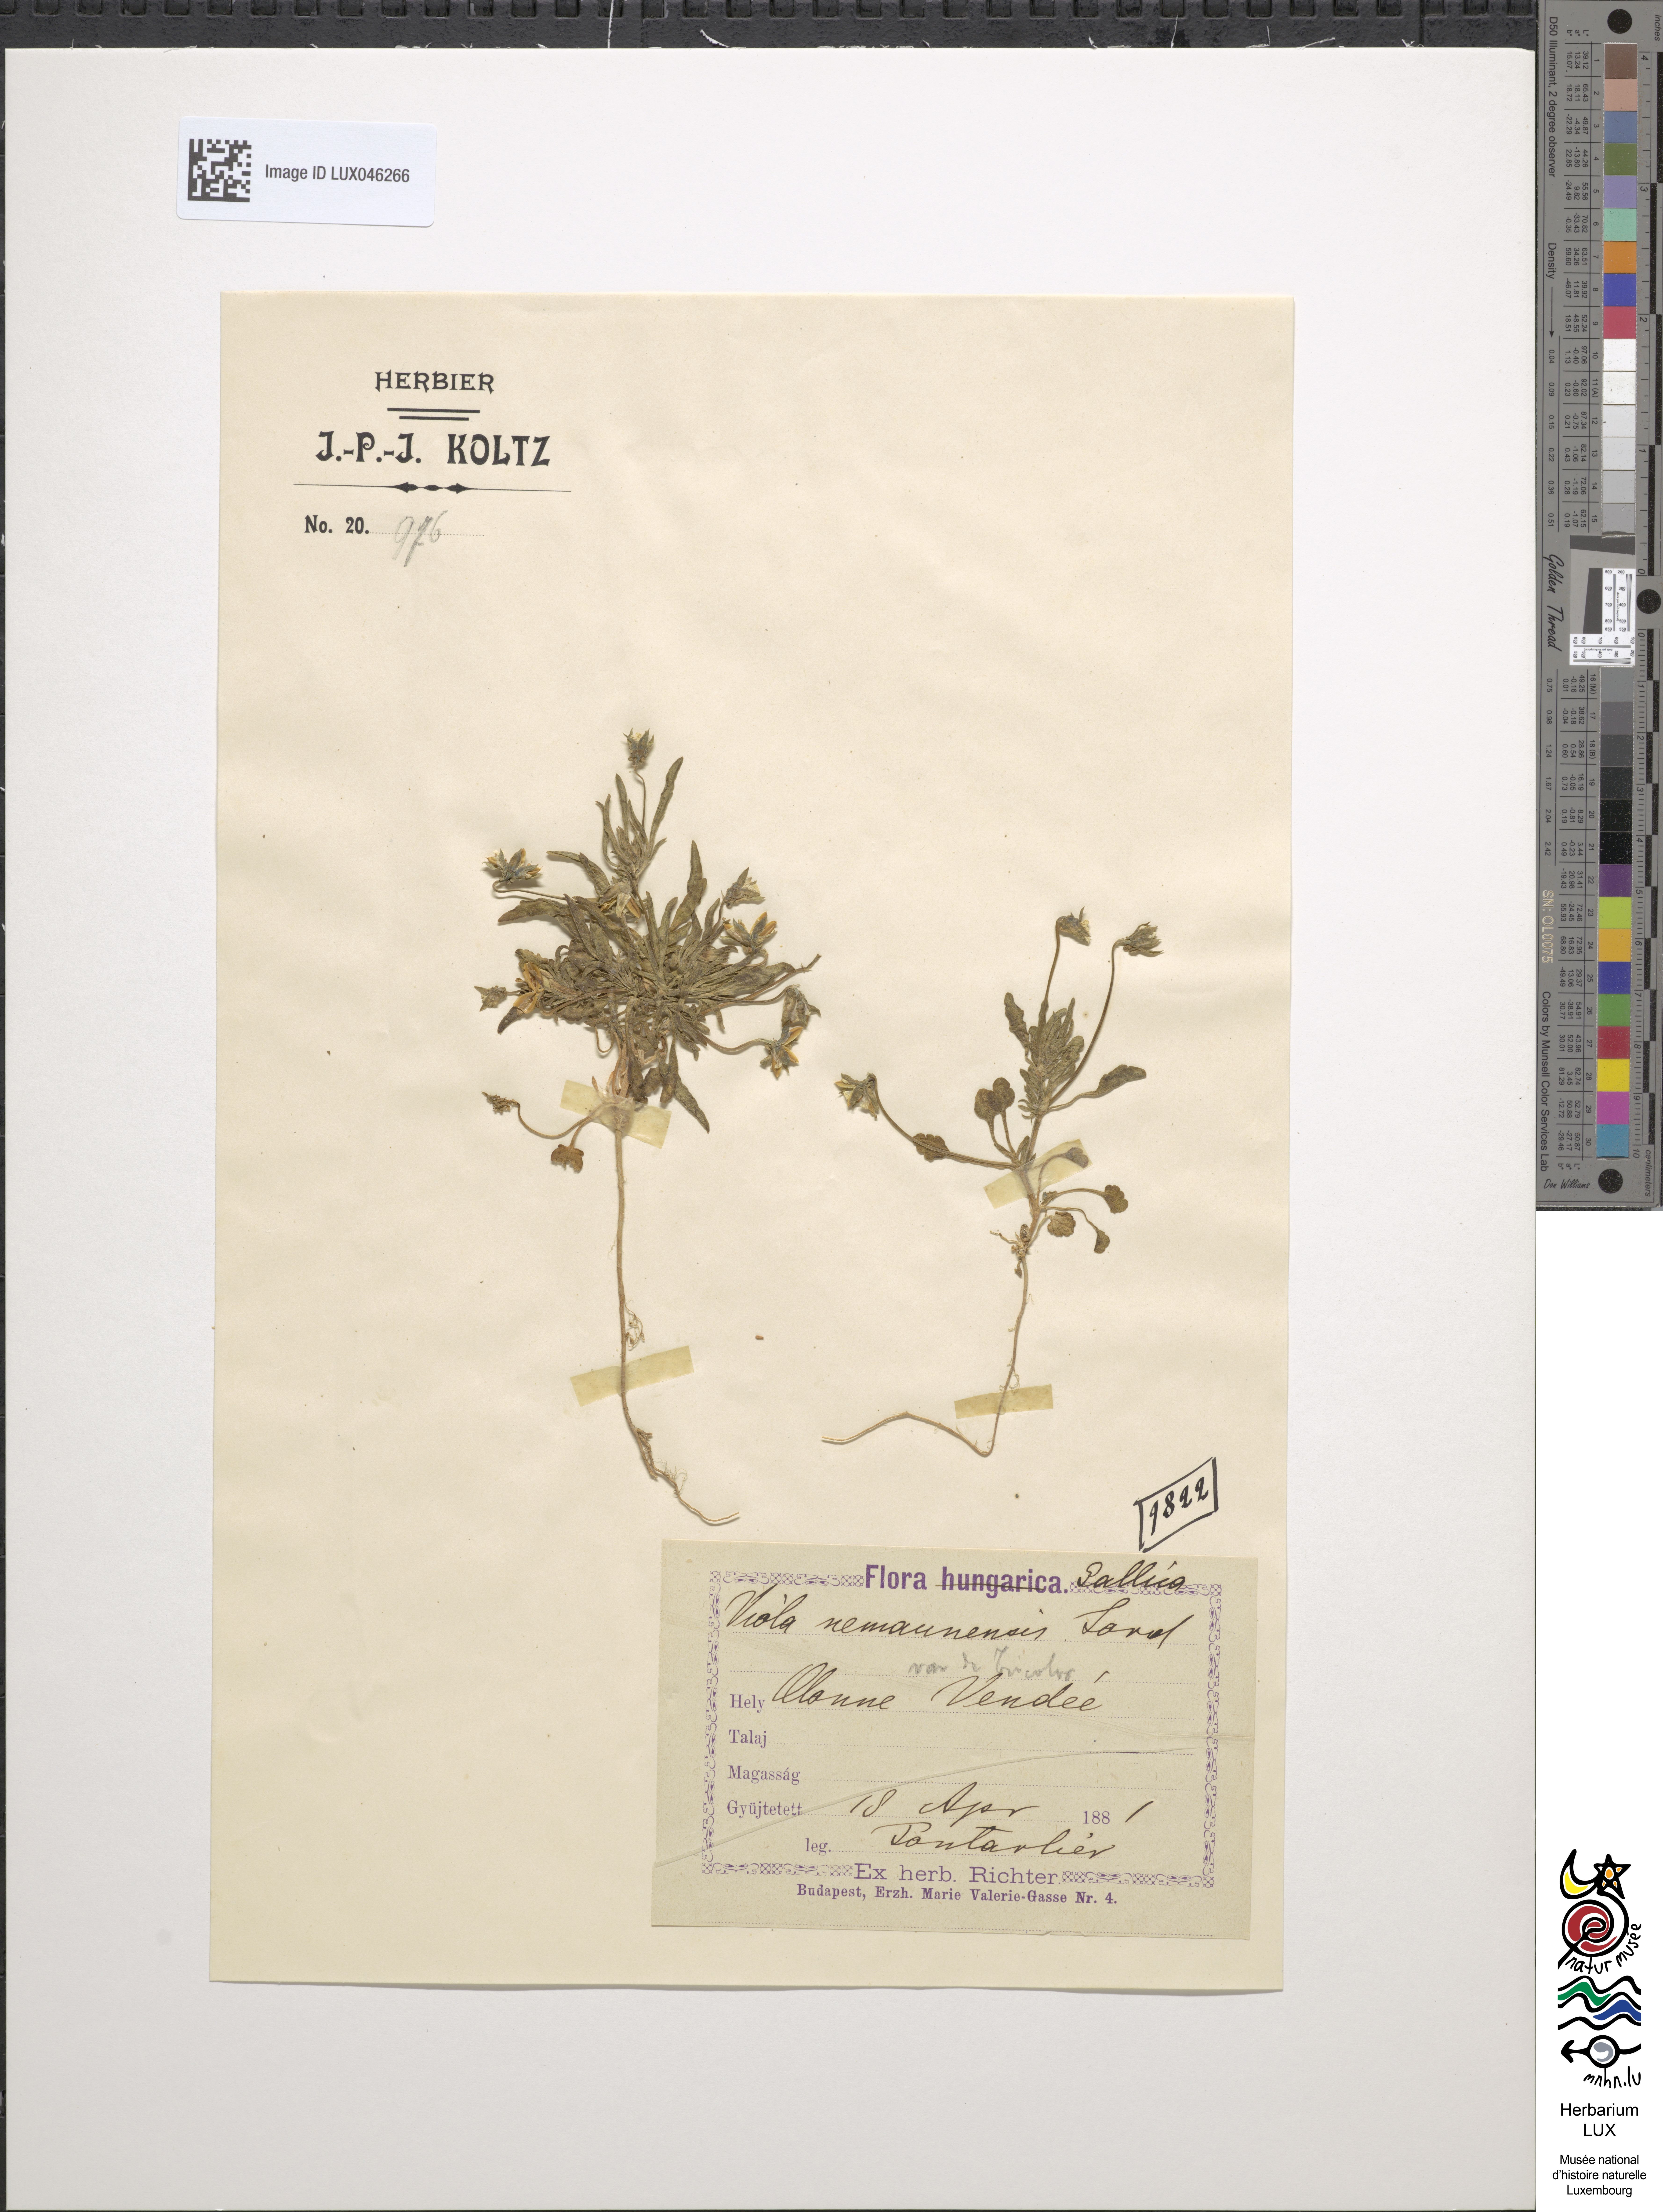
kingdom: Plantae
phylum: Tracheophyta
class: Magnoliopsida
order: Malpighiales
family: Violaceae
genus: Viola
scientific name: Viola kitaibeliana
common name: Dwarf pansy
